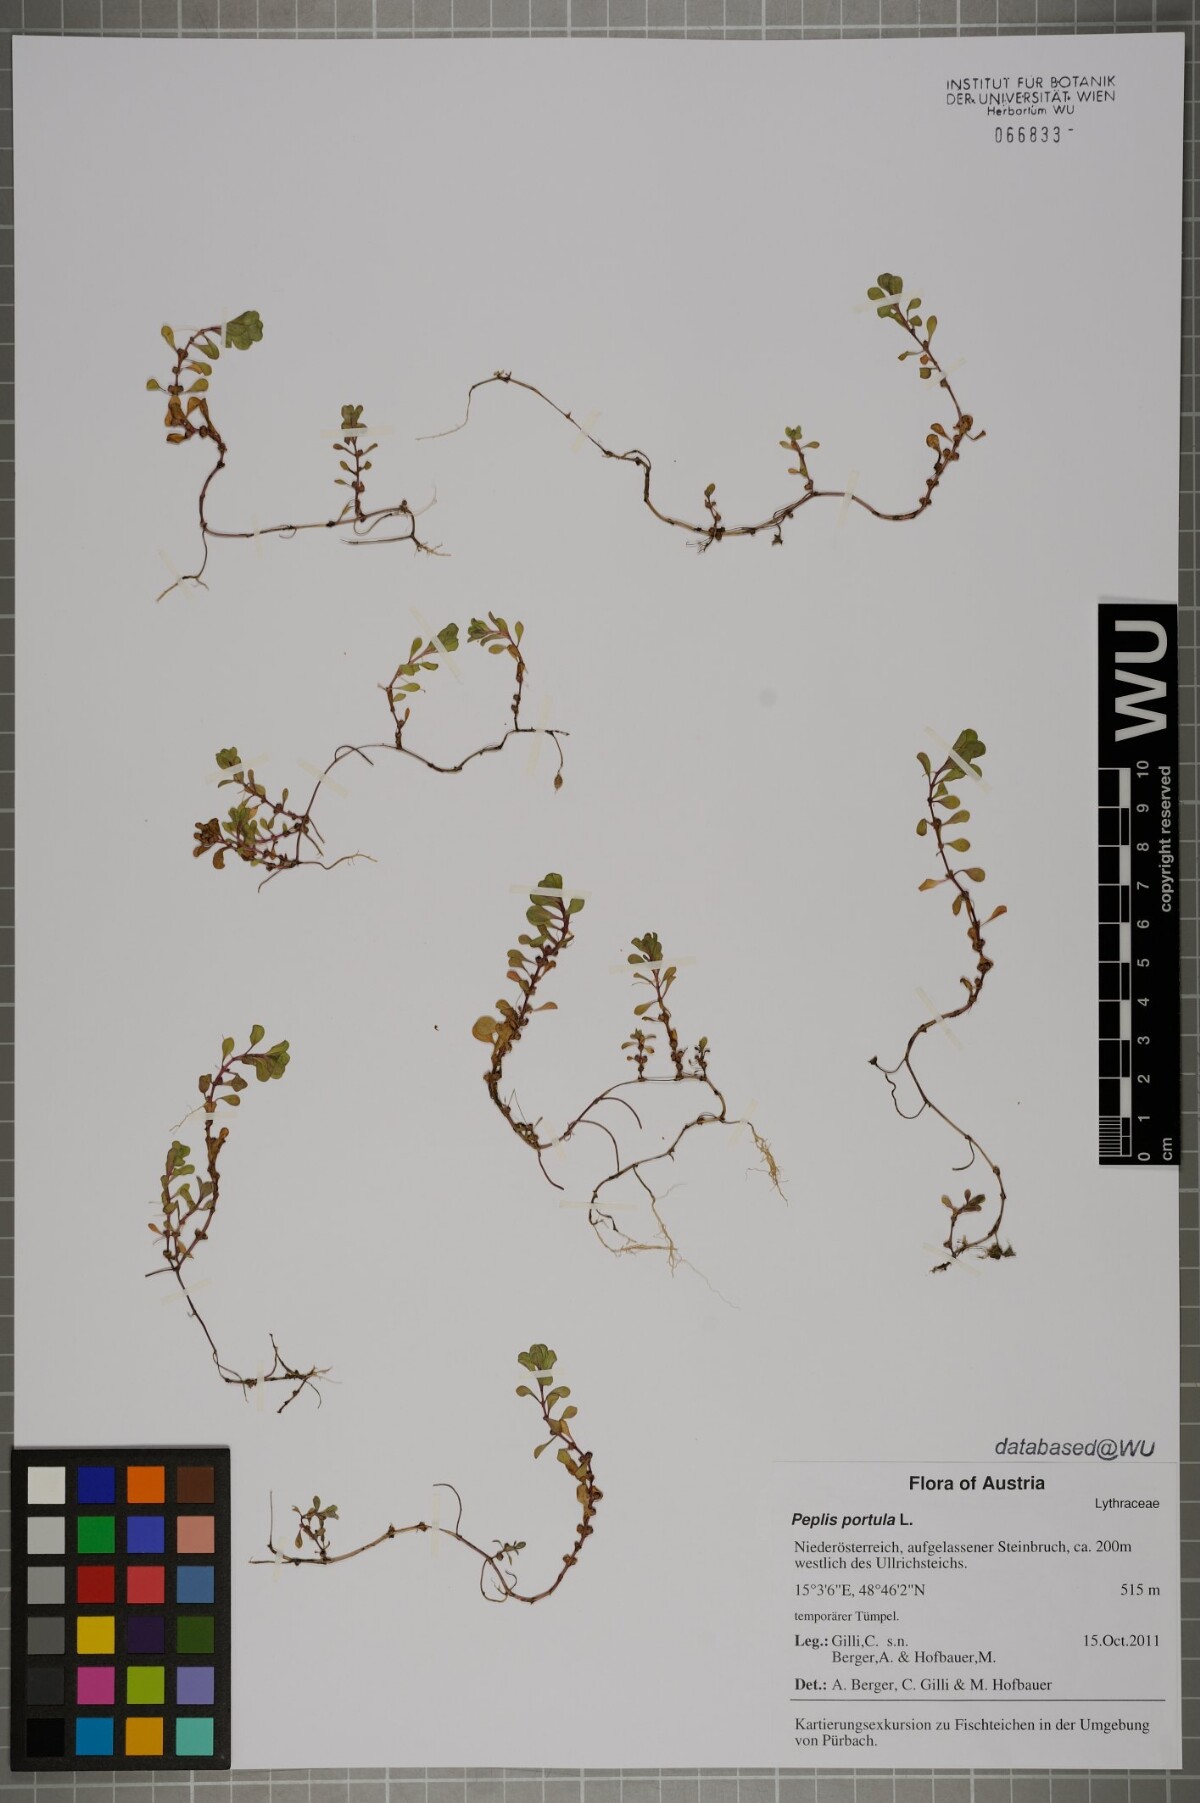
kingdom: Plantae
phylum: Tracheophyta
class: Magnoliopsida
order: Myrtales
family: Lythraceae
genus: Lythrum
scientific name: Lythrum portula
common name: Water purslane
